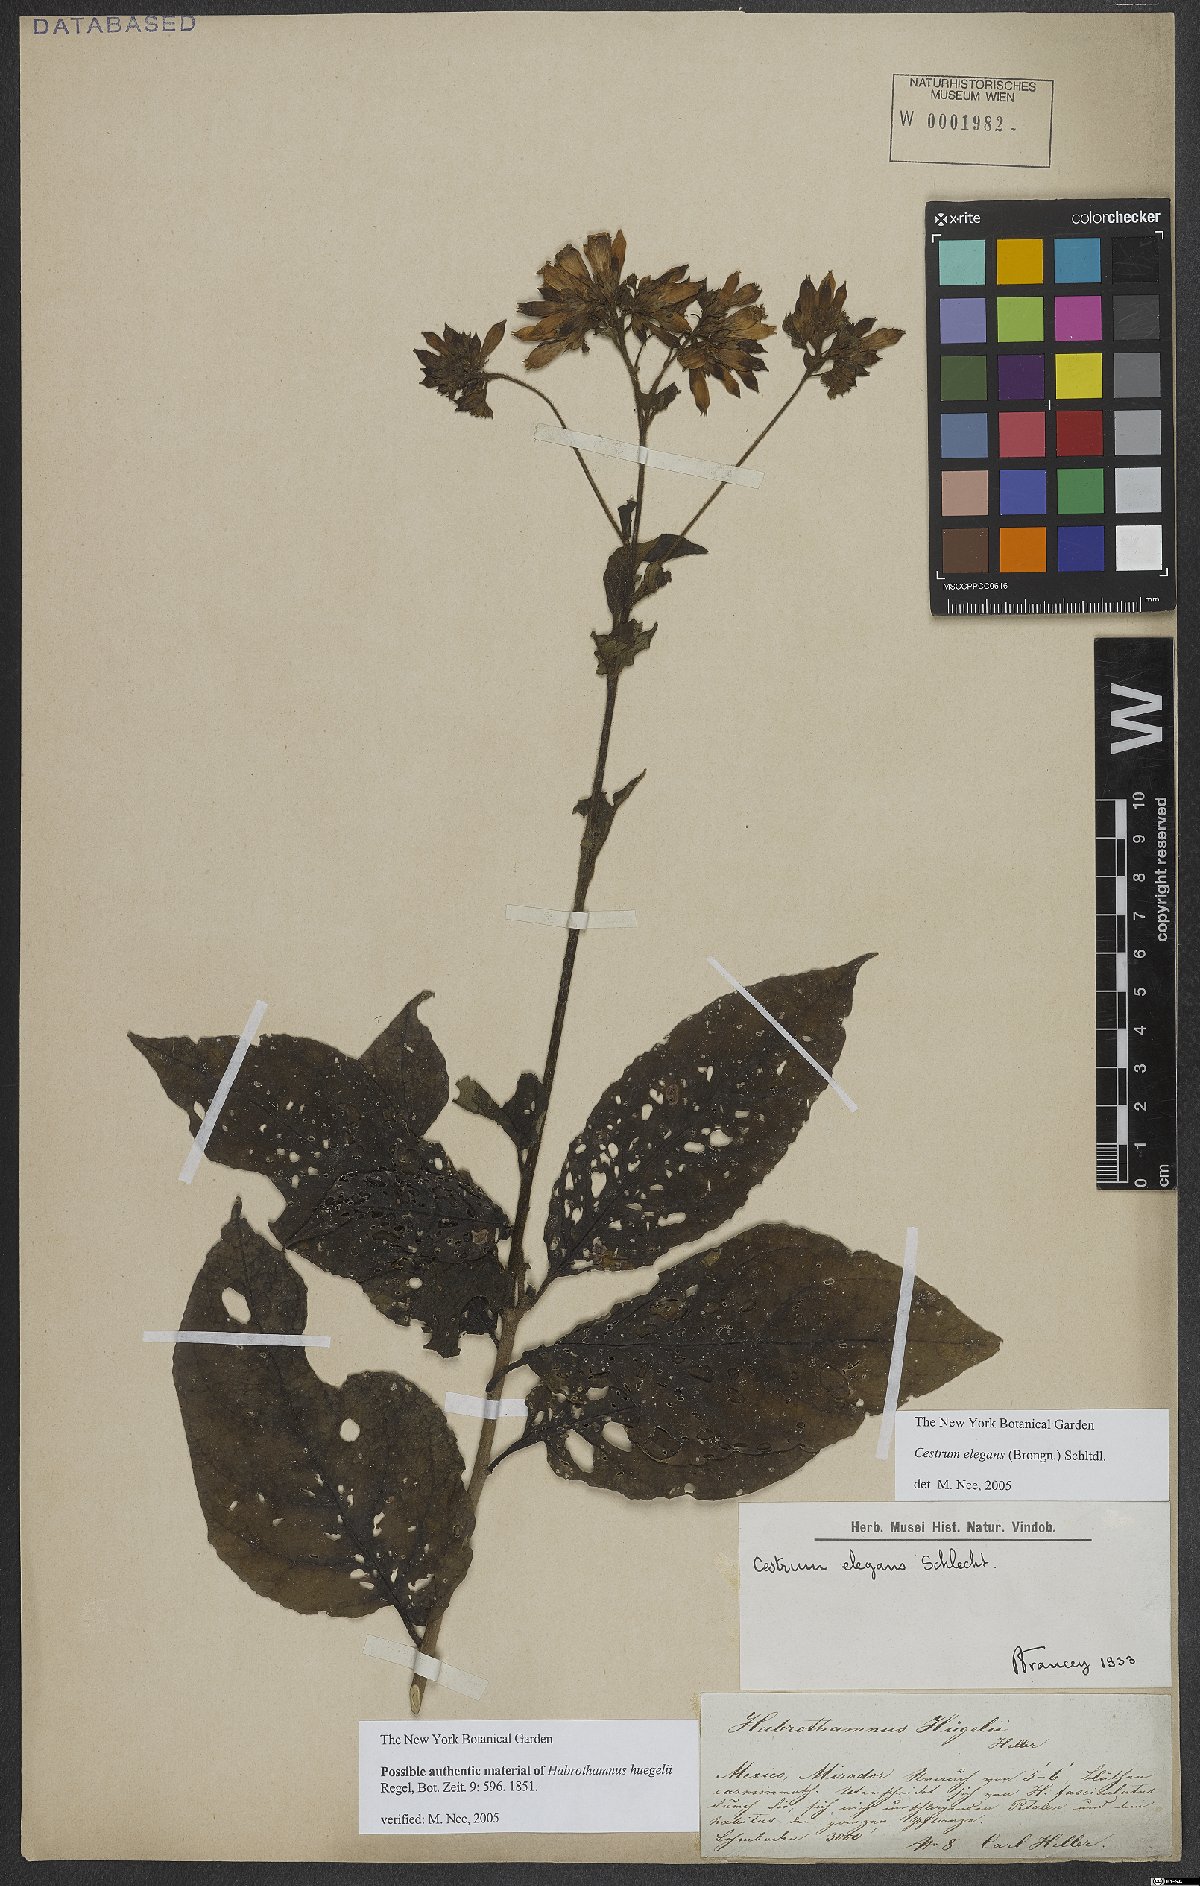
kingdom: Plantae
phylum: Tracheophyta
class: Magnoliopsida
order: Solanales
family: Solanaceae
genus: Cestrum
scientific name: Cestrum elegans
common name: Crimson cestrum
